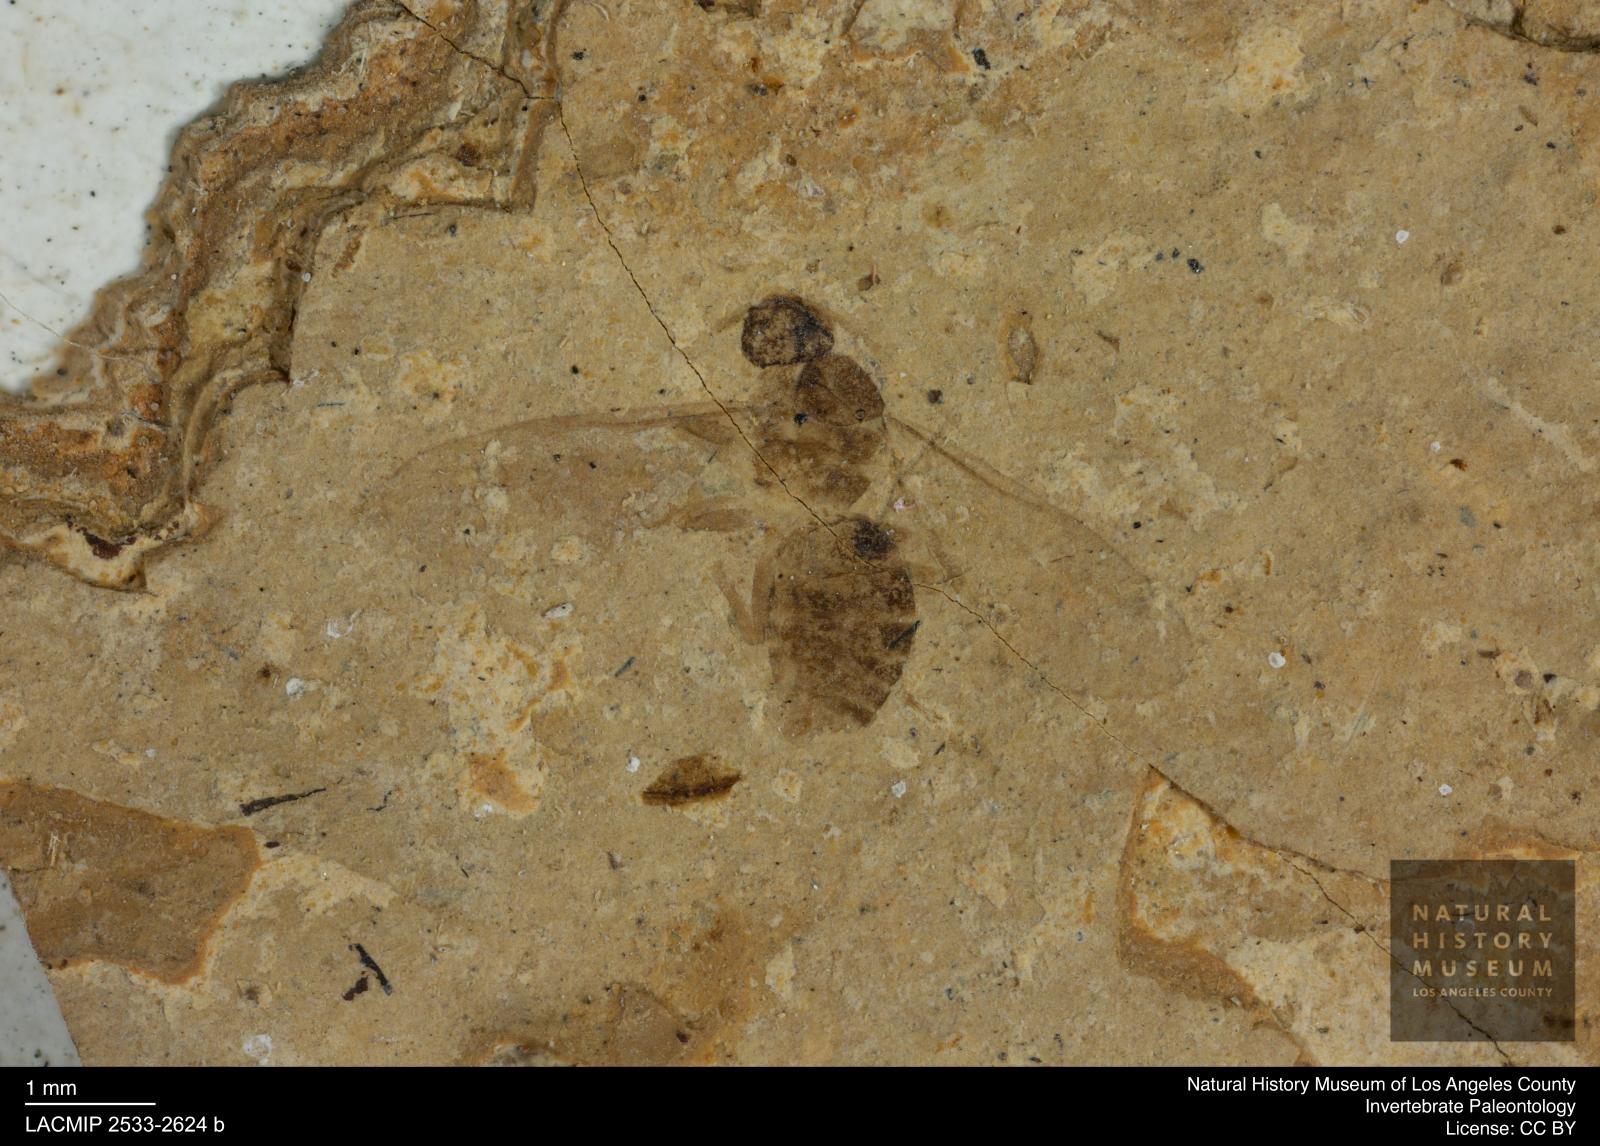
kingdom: Animalia
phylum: Arthropoda
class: Insecta
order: Hymenoptera
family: Formicidae
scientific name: Formicidae
